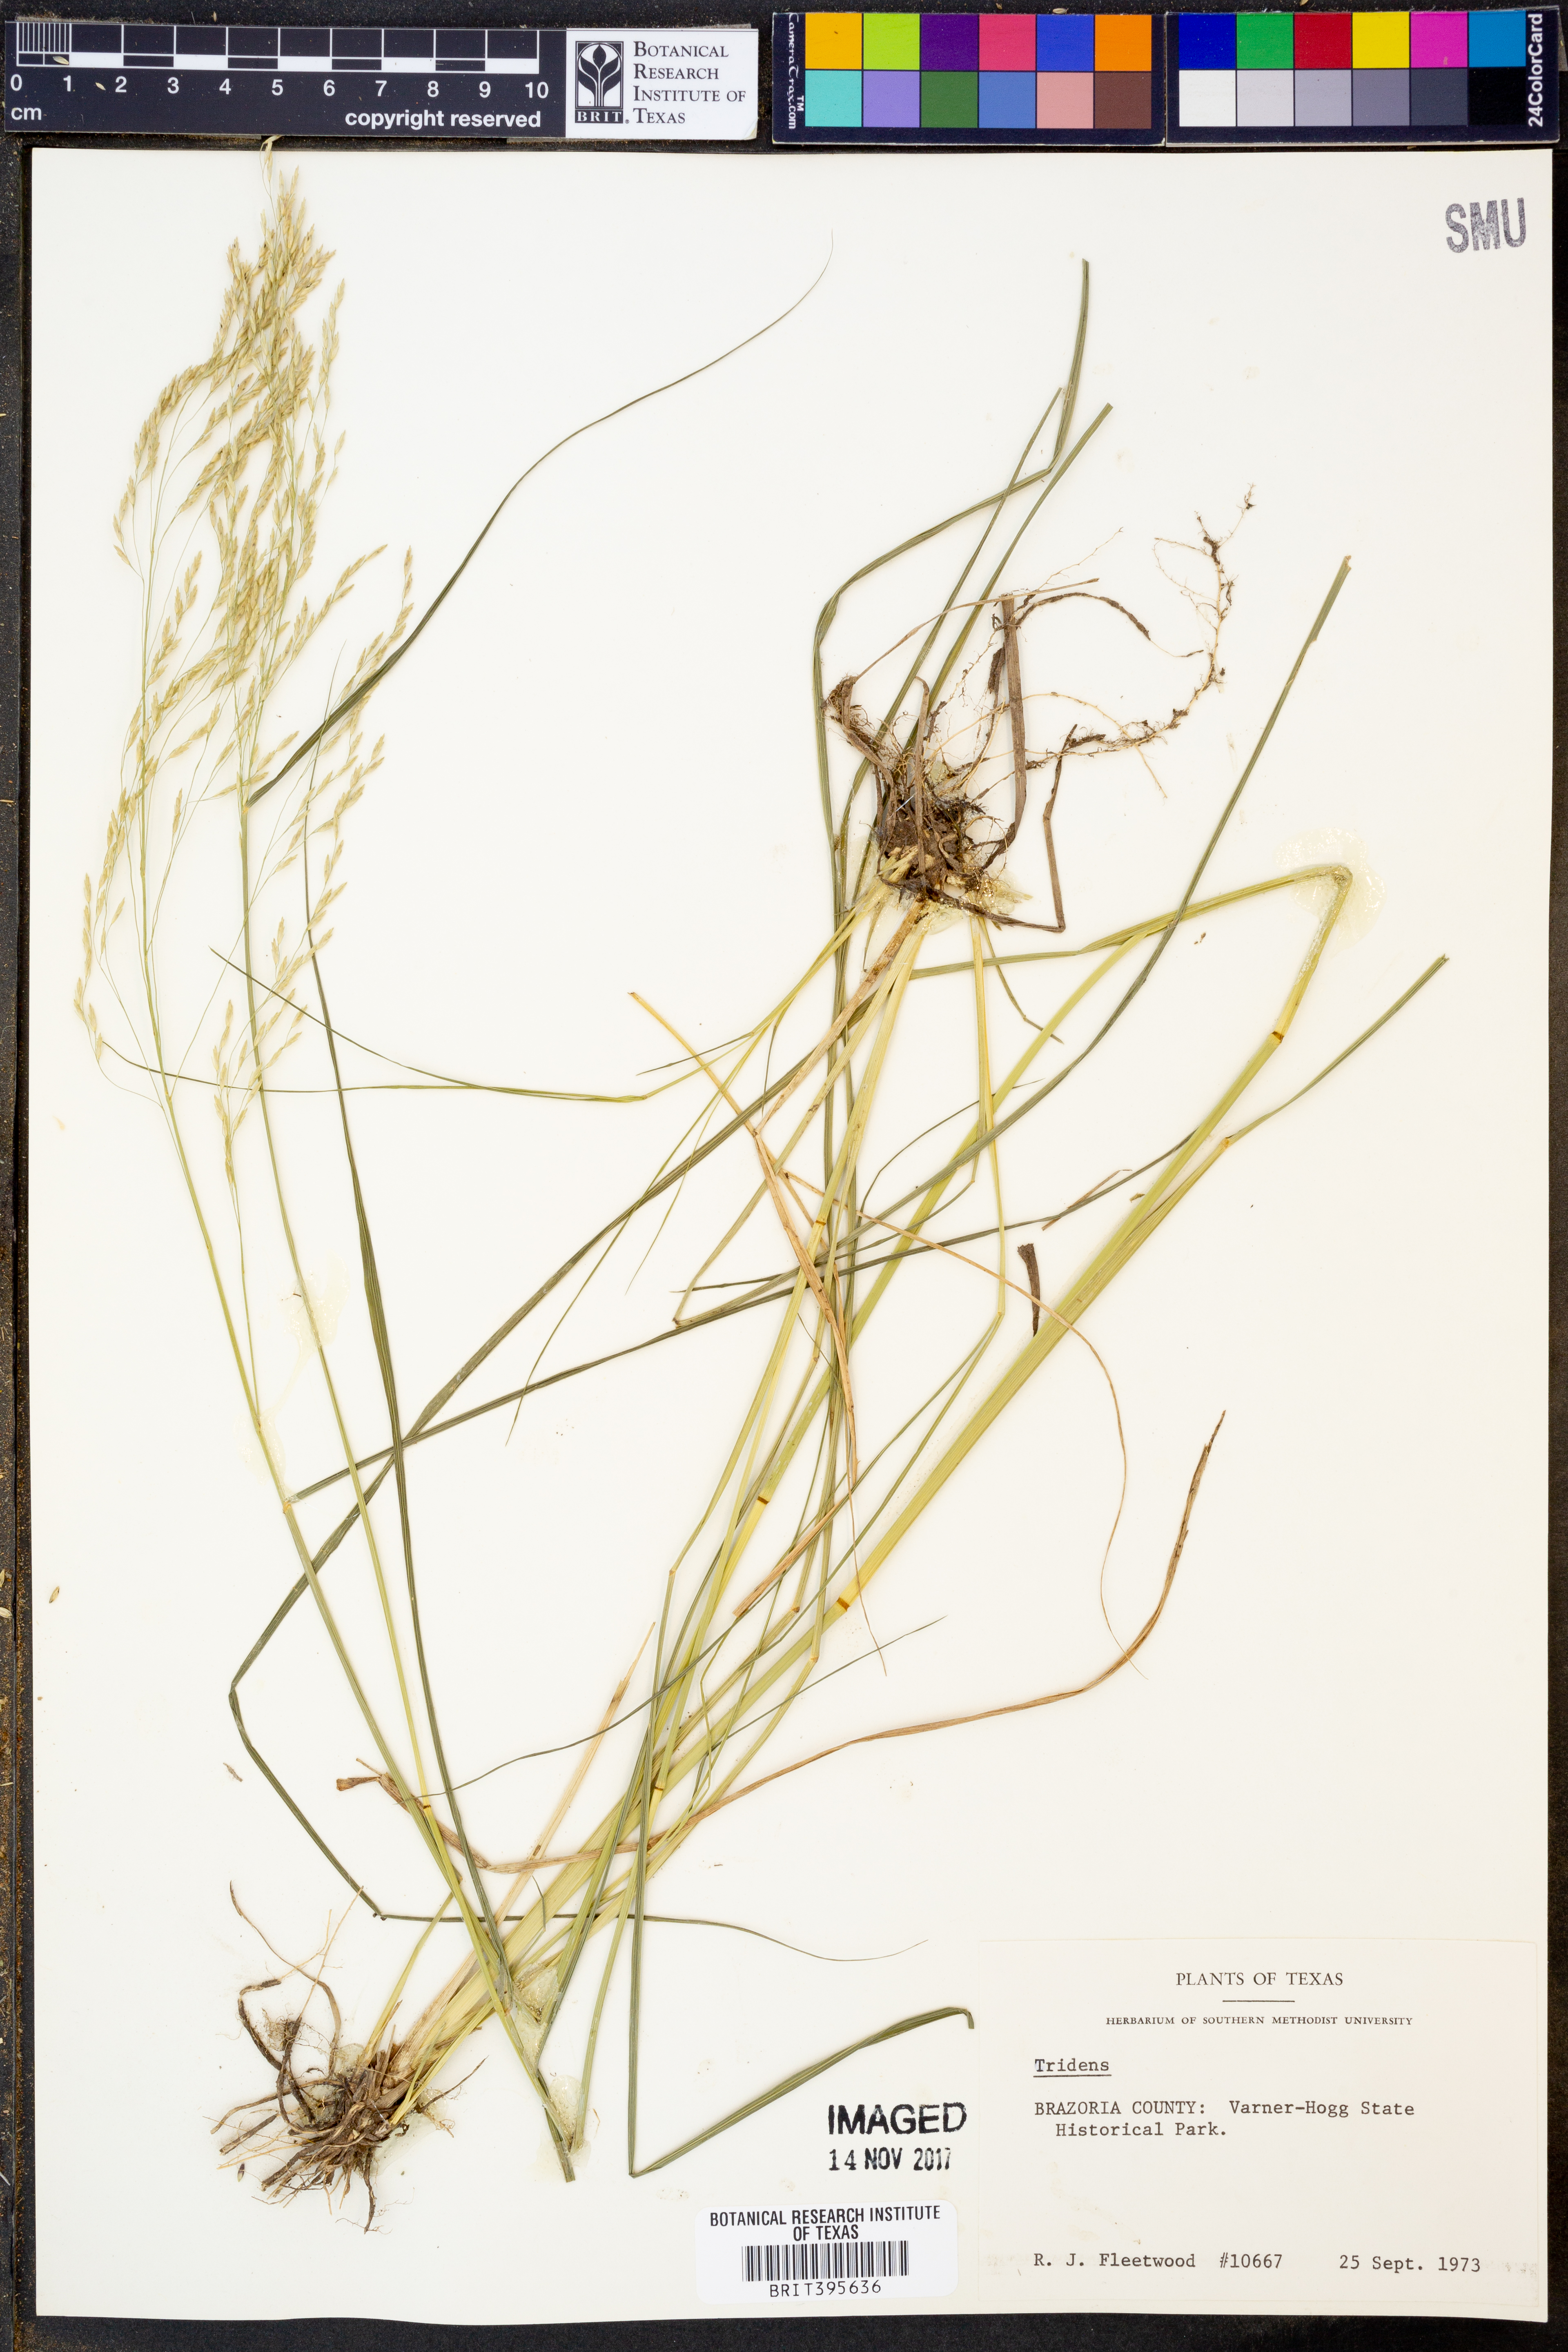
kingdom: Plantae
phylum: Tracheophyta
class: Liliopsida
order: Poales
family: Poaceae
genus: Tridens
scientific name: Tridens
